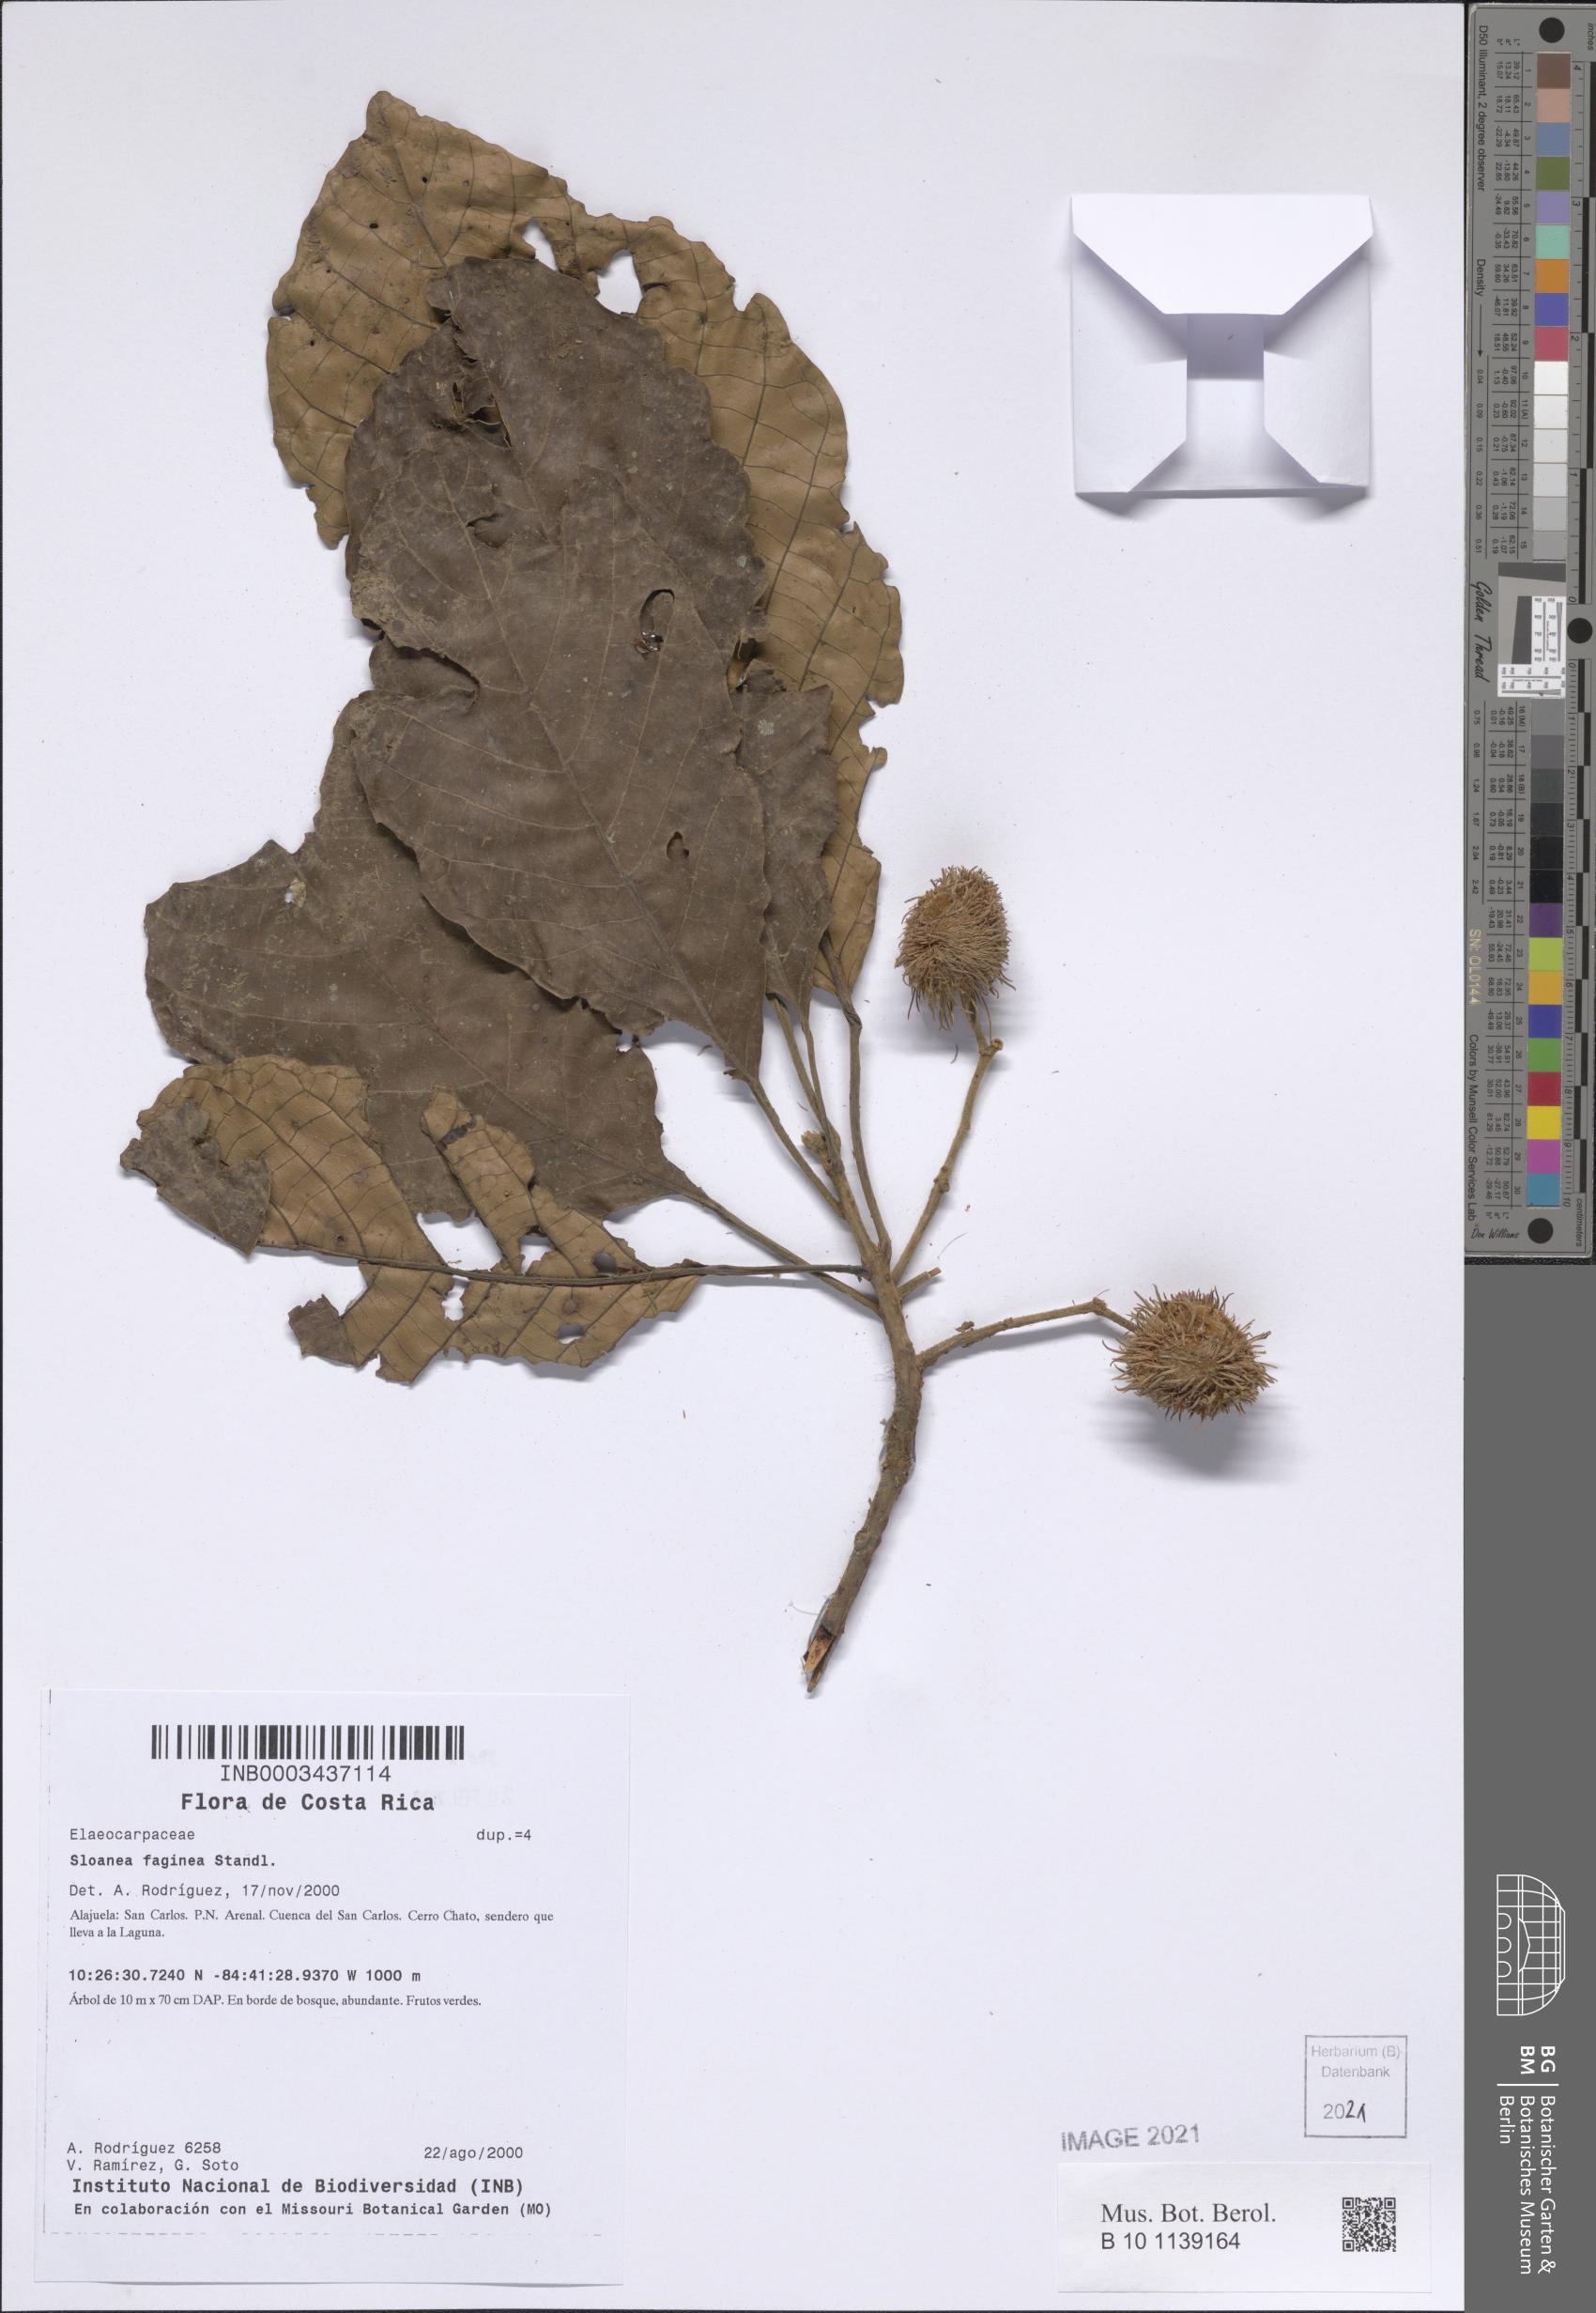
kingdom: Plantae
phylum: Tracheophyta
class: Magnoliopsida
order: Oxalidales
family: Elaeocarpaceae
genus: Sloanea
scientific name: Sloanea faginea
